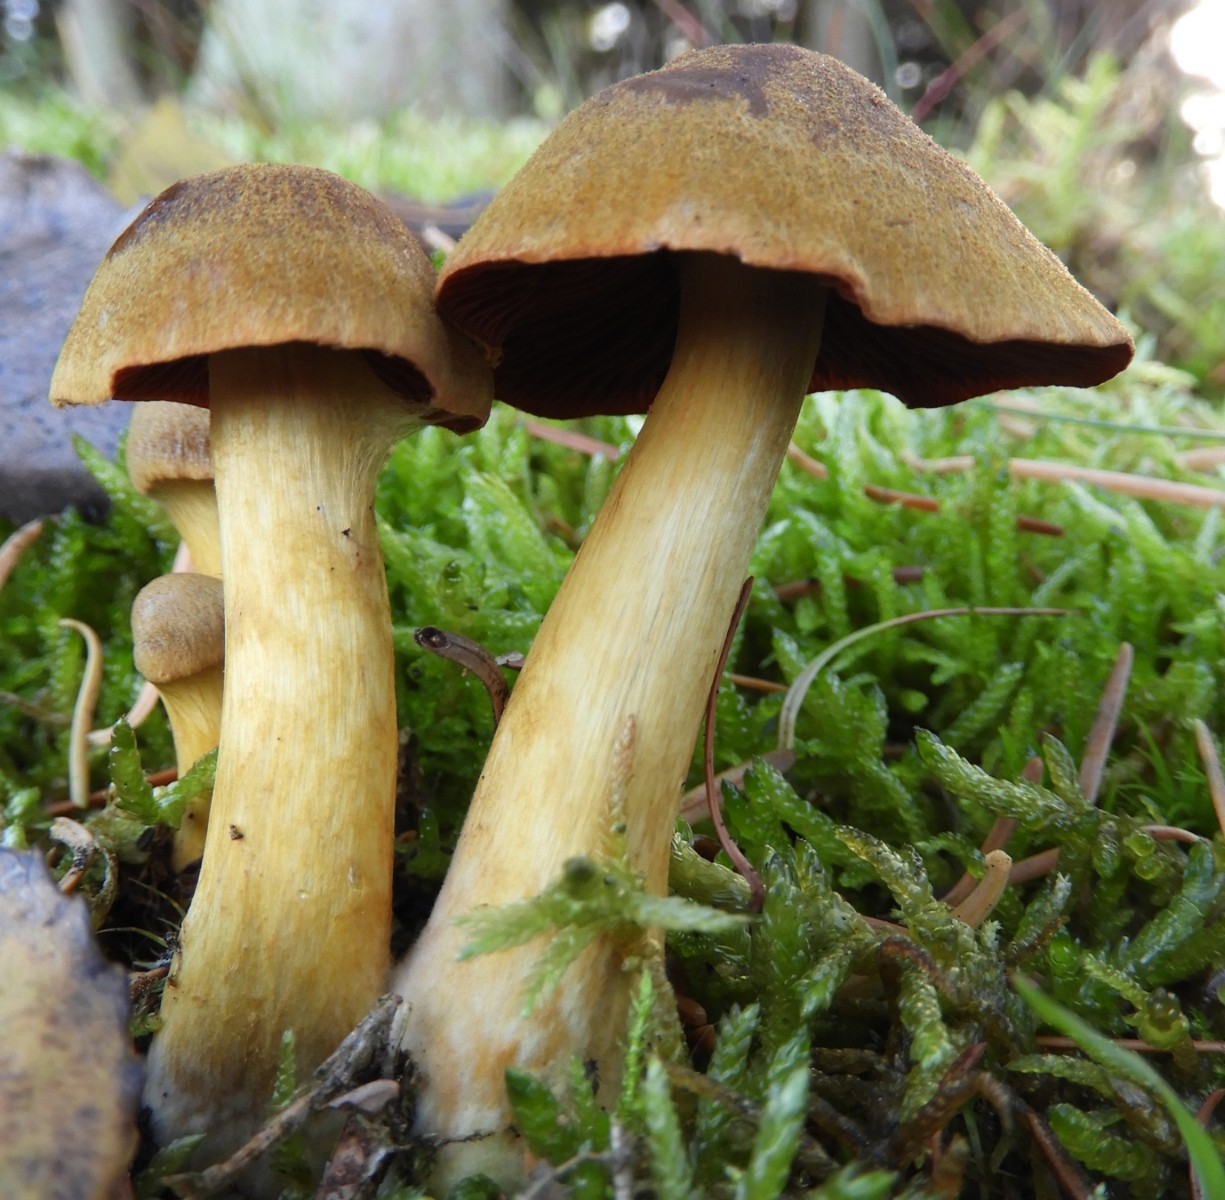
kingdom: Fungi
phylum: Basidiomycota
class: Agaricomycetes
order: Agaricales
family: Cortinariaceae
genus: Cortinarius
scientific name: Cortinarius
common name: cinnoberbladet slørhat
